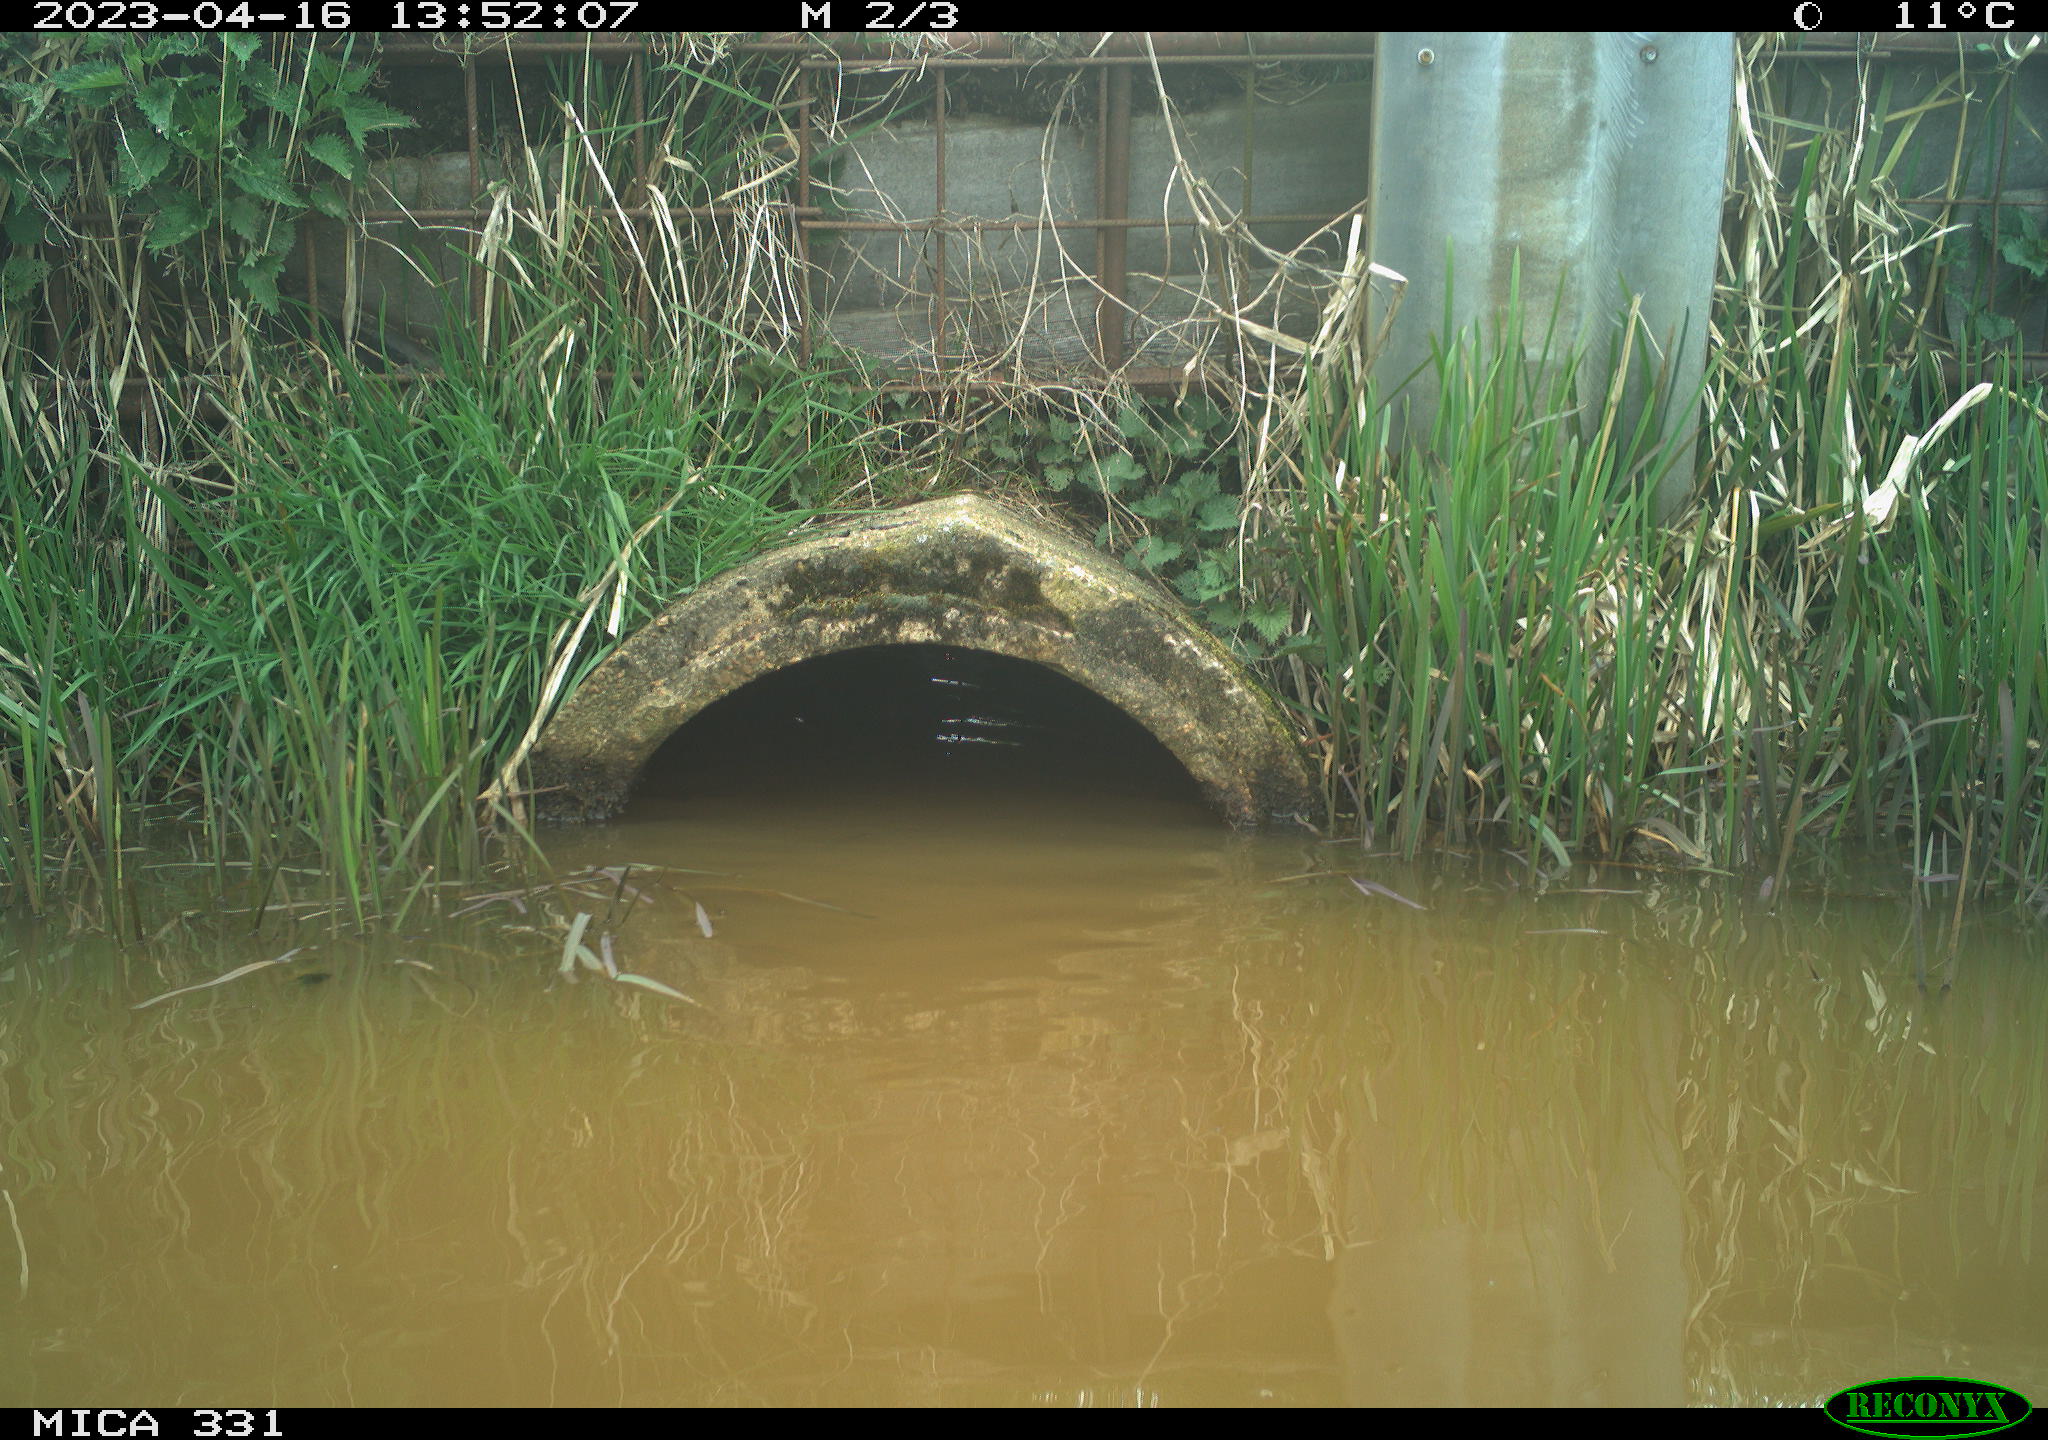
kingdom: Animalia
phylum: Chordata
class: Aves
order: Gruiformes
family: Rallidae
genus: Fulica
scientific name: Fulica atra
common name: Eurasian coot
